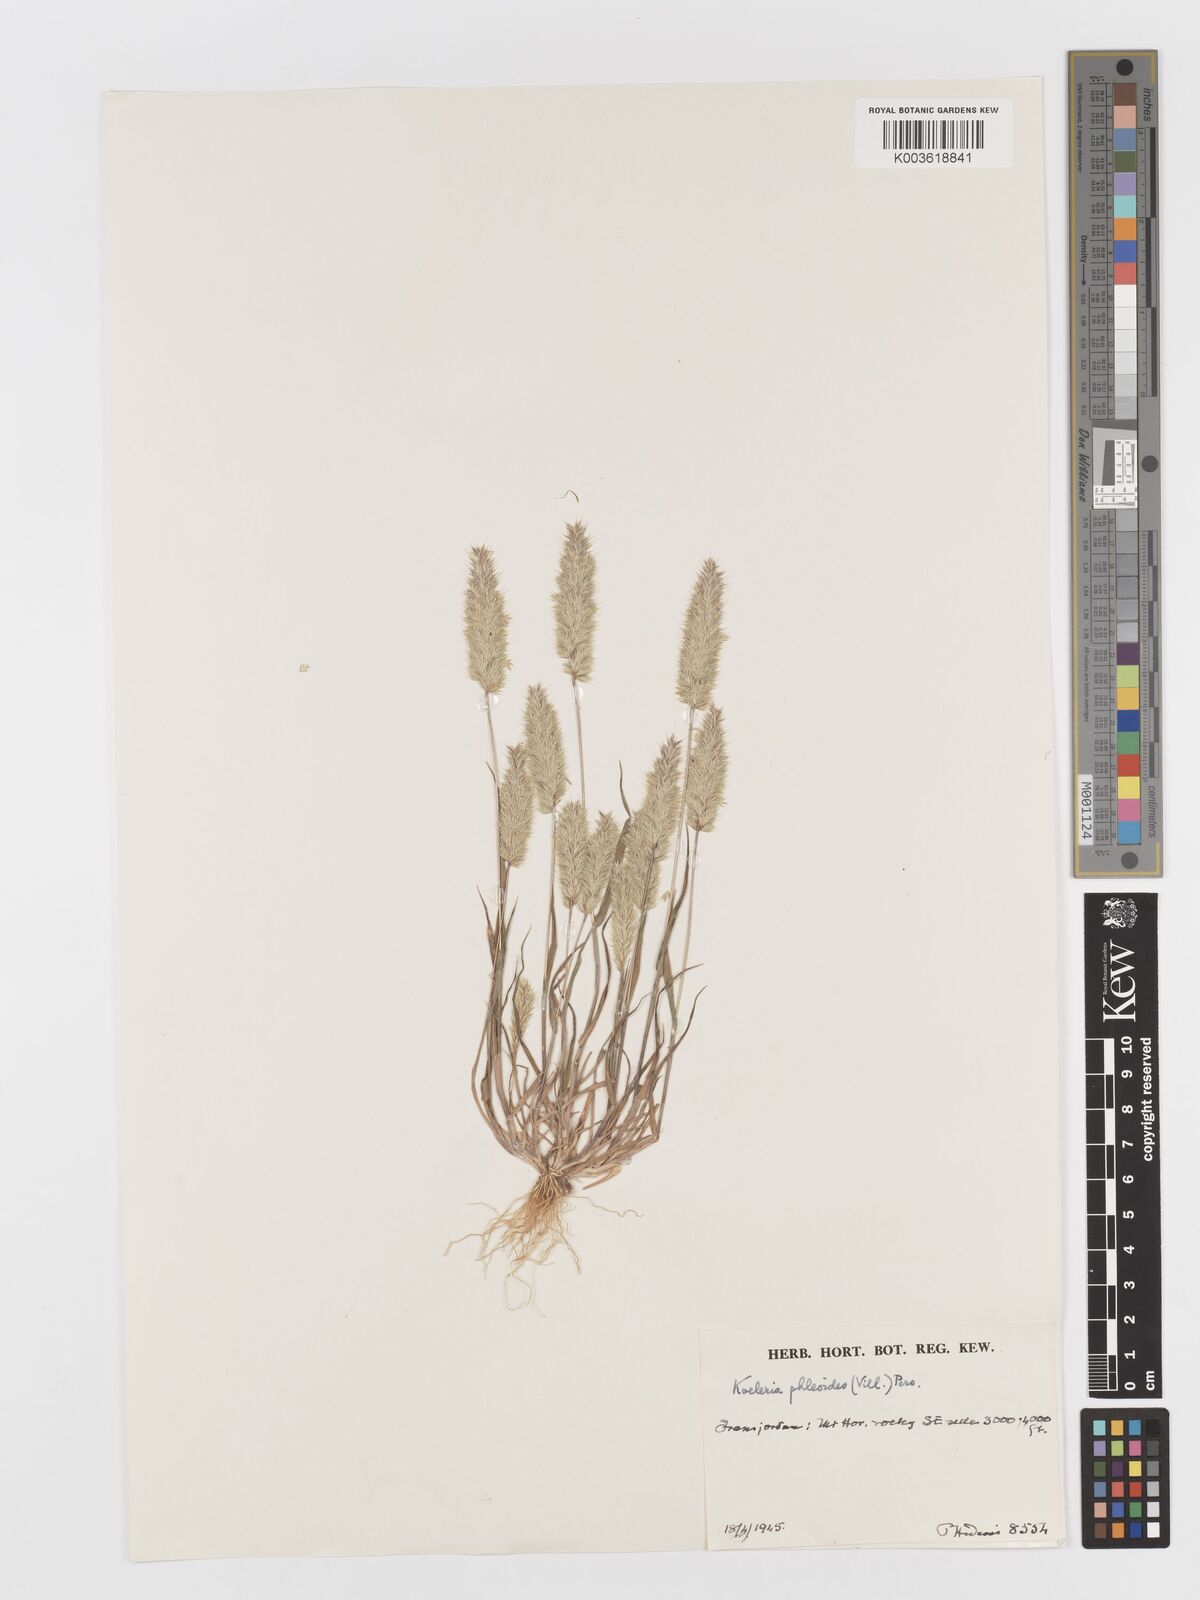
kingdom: Plantae
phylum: Tracheophyta
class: Liliopsida
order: Poales
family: Poaceae
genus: Rostraria
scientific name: Rostraria cristata
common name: Mediterranean hair-grass
